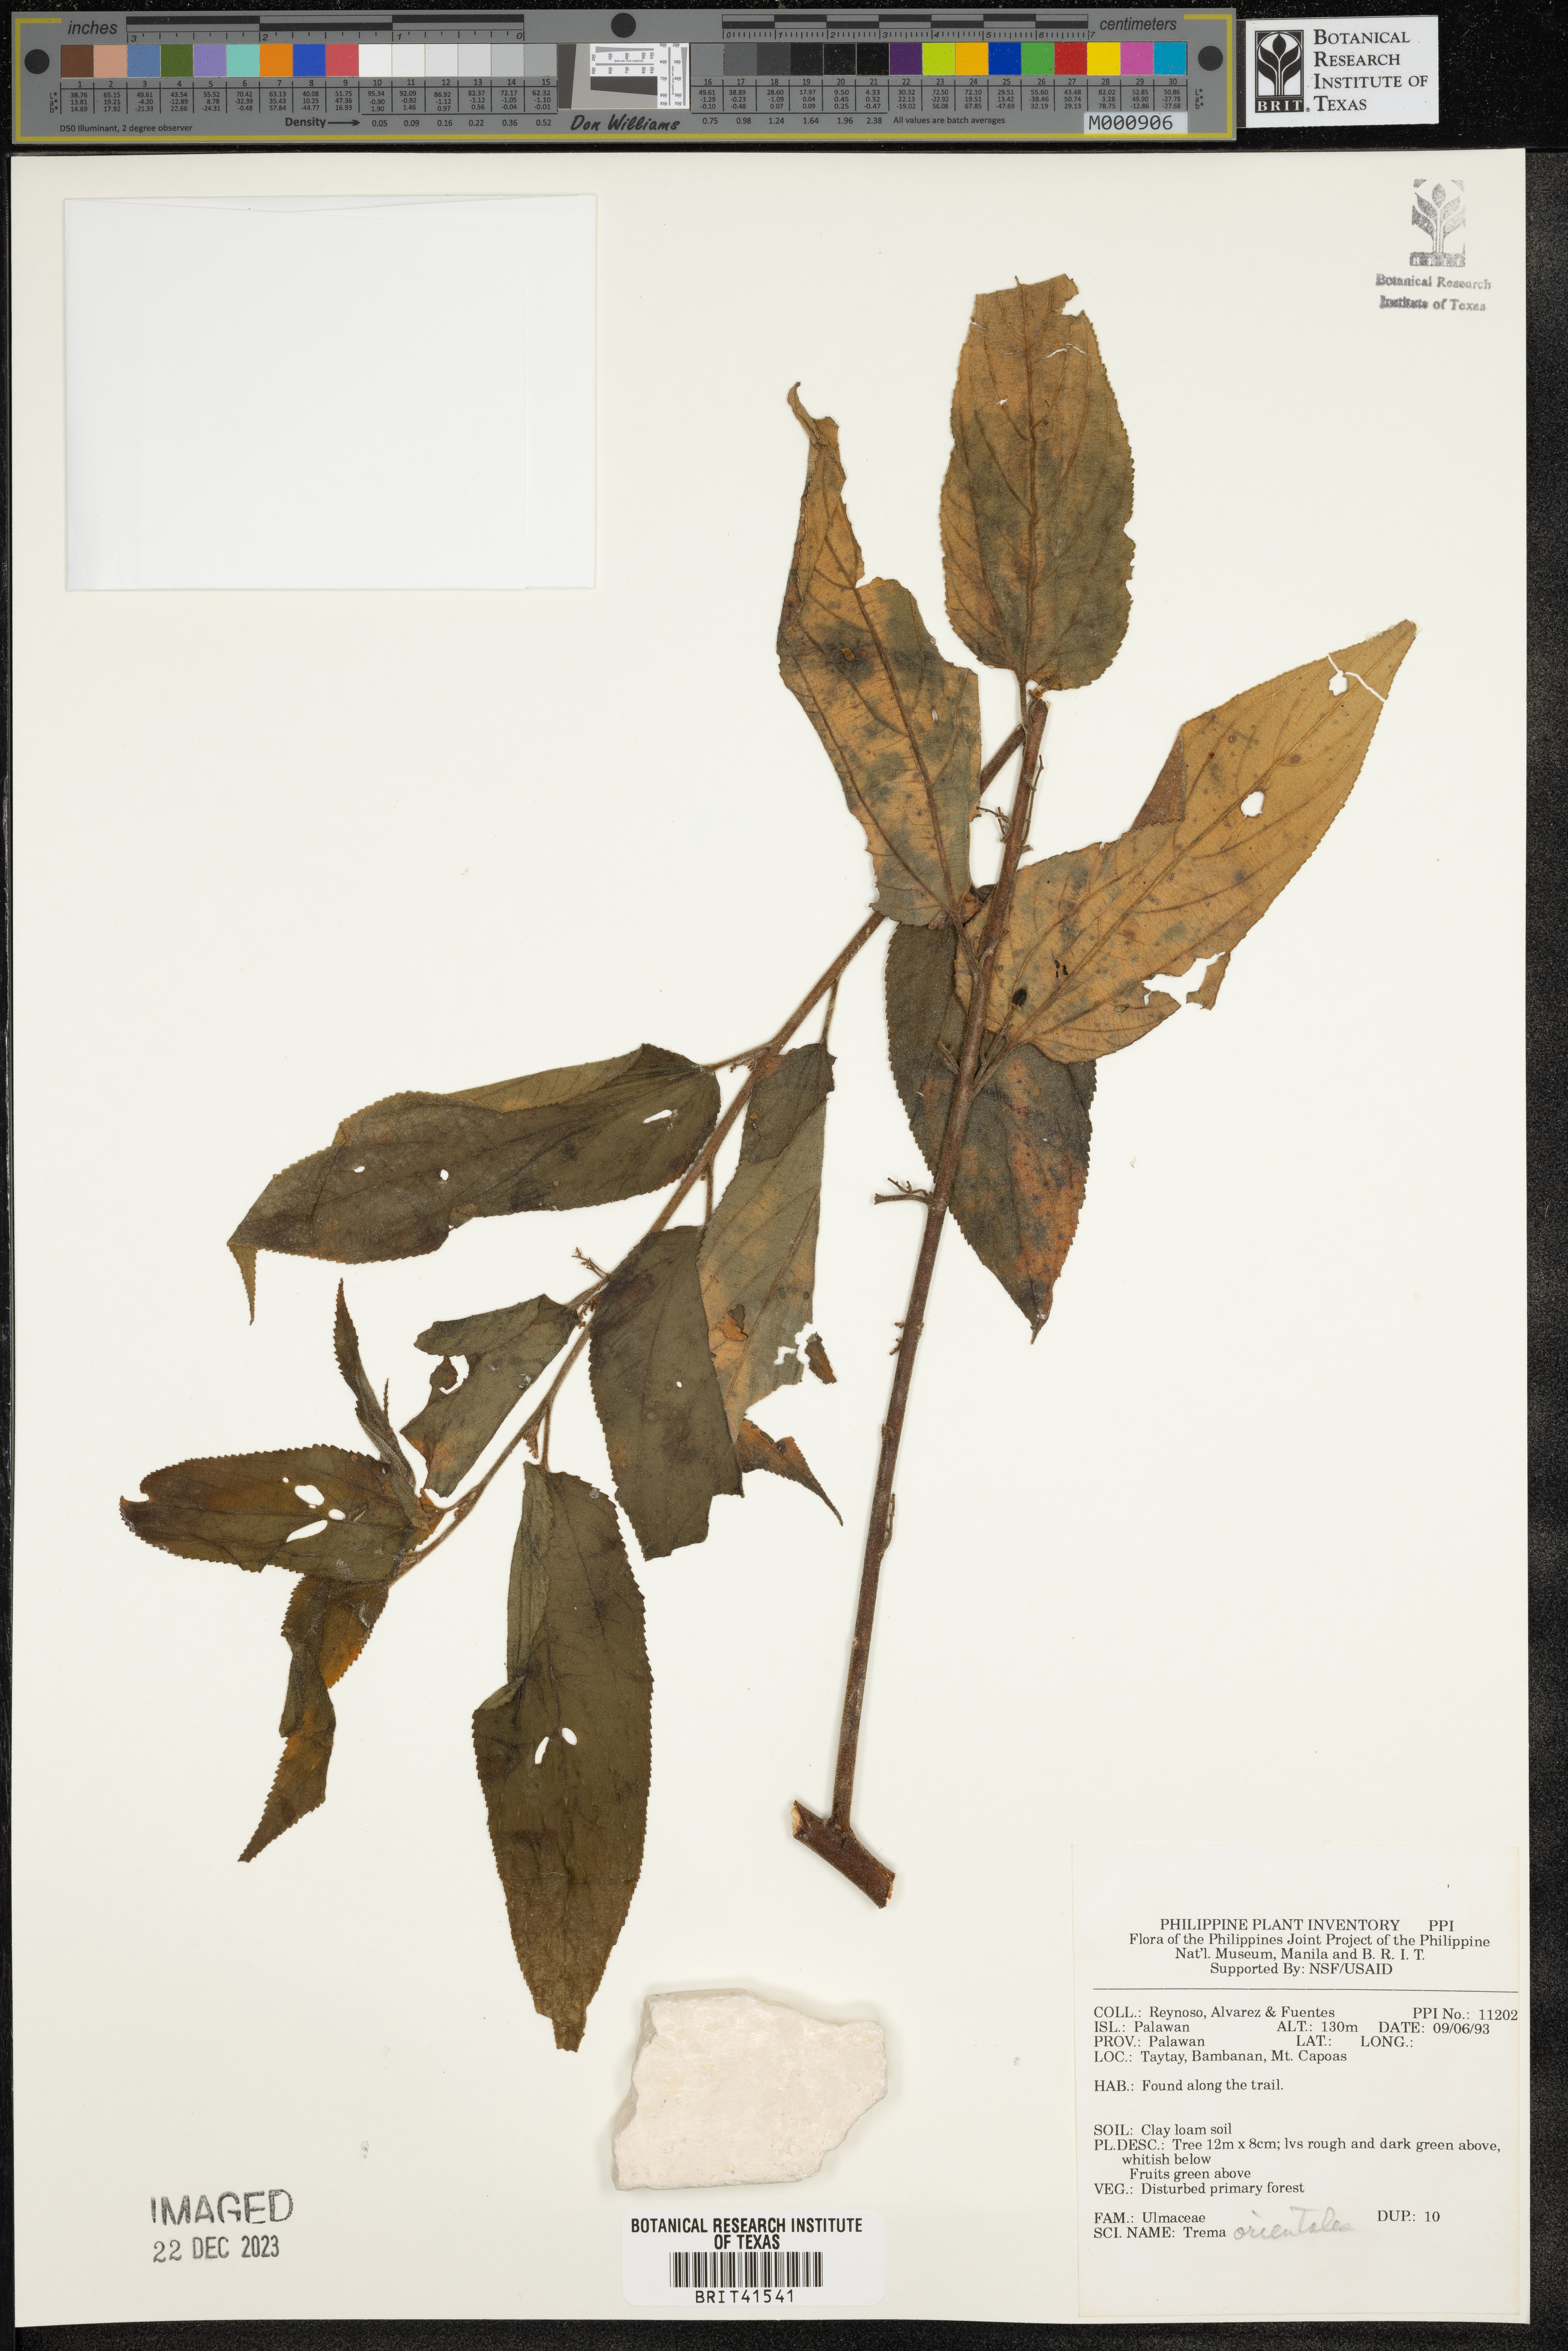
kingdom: Plantae
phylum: Tracheophyta
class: Magnoliopsida
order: Rosales
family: Cannabaceae
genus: Trema
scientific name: Trema orientale
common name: Indian charcoal tree
